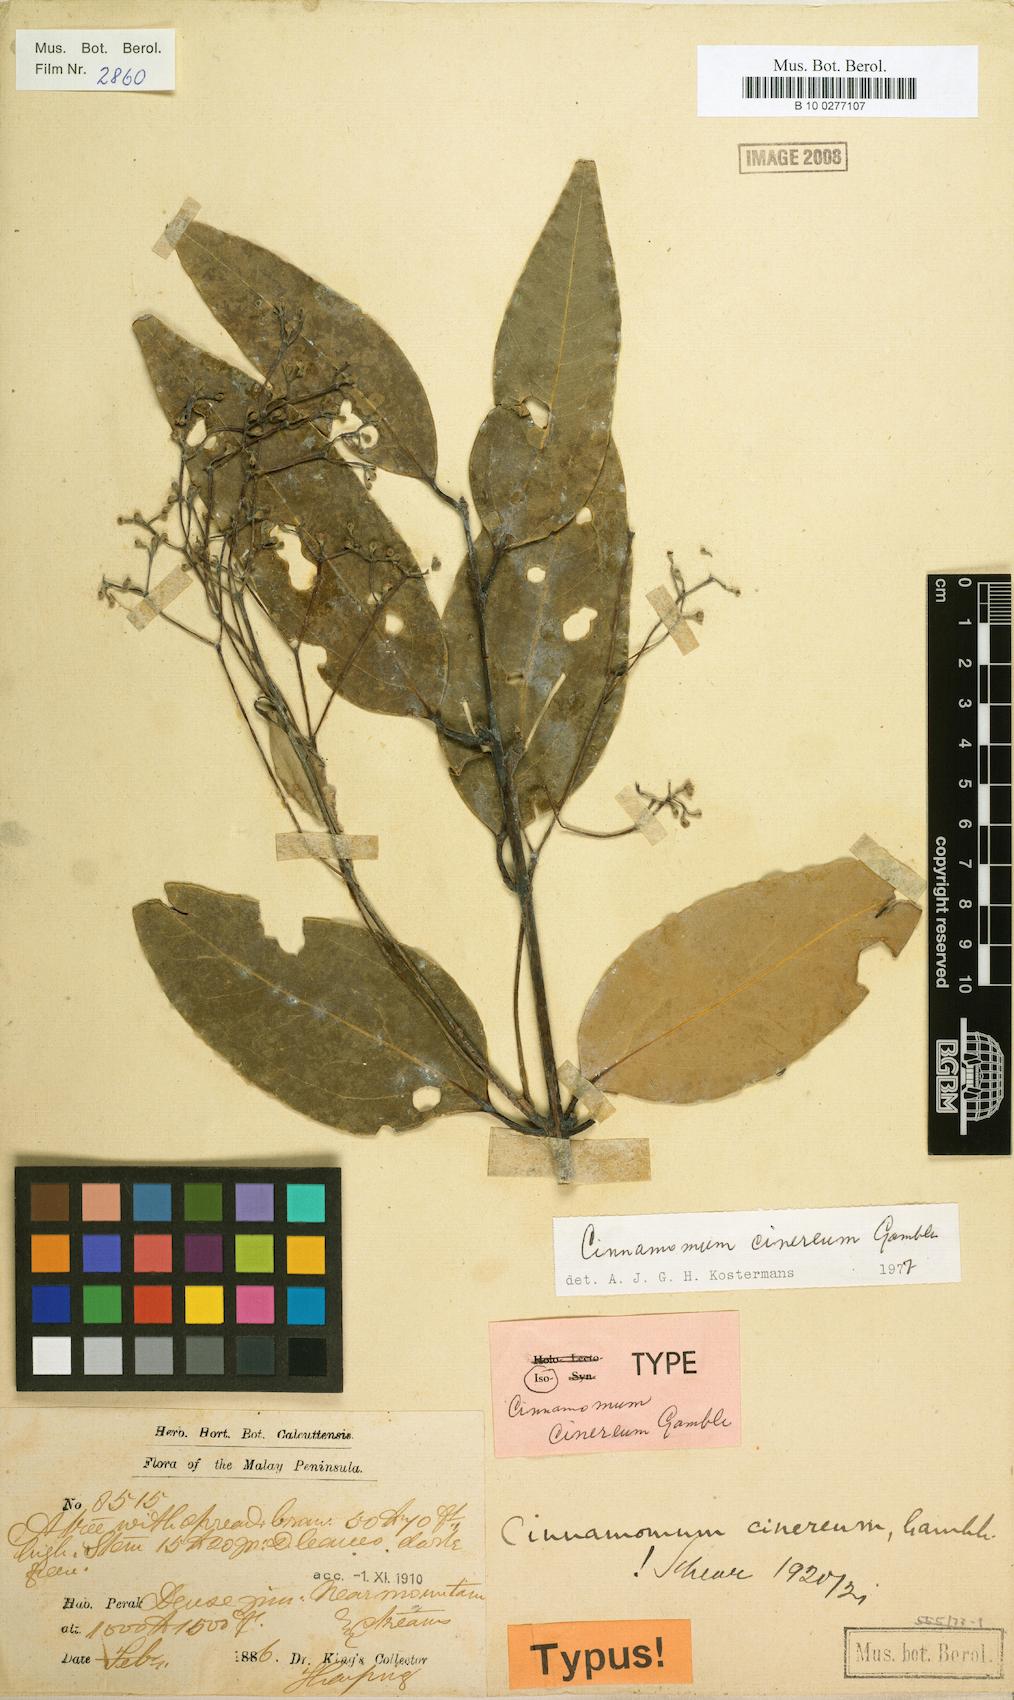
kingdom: Plantae
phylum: Tracheophyta
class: Magnoliopsida
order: Laurales
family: Lauraceae
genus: Cinnamomum
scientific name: Cinnamomum sintoc
